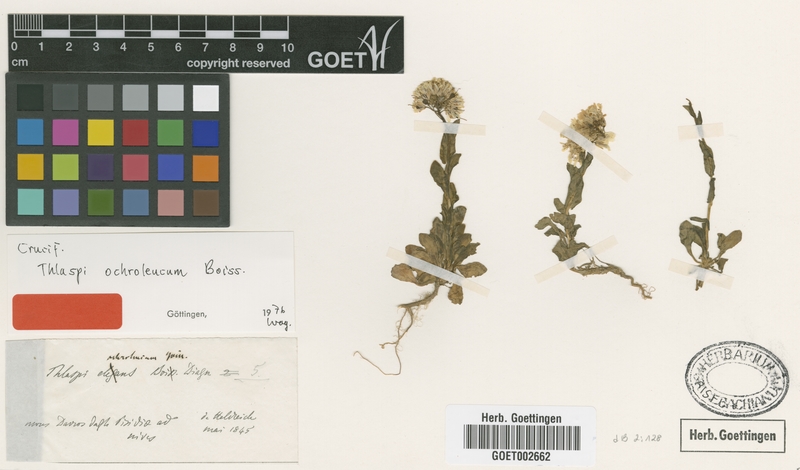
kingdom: Plantae
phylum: Tracheophyta
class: Magnoliopsida
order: Brassicales
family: Brassicaceae
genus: Noccaea
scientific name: Noccaea ochroleuca
